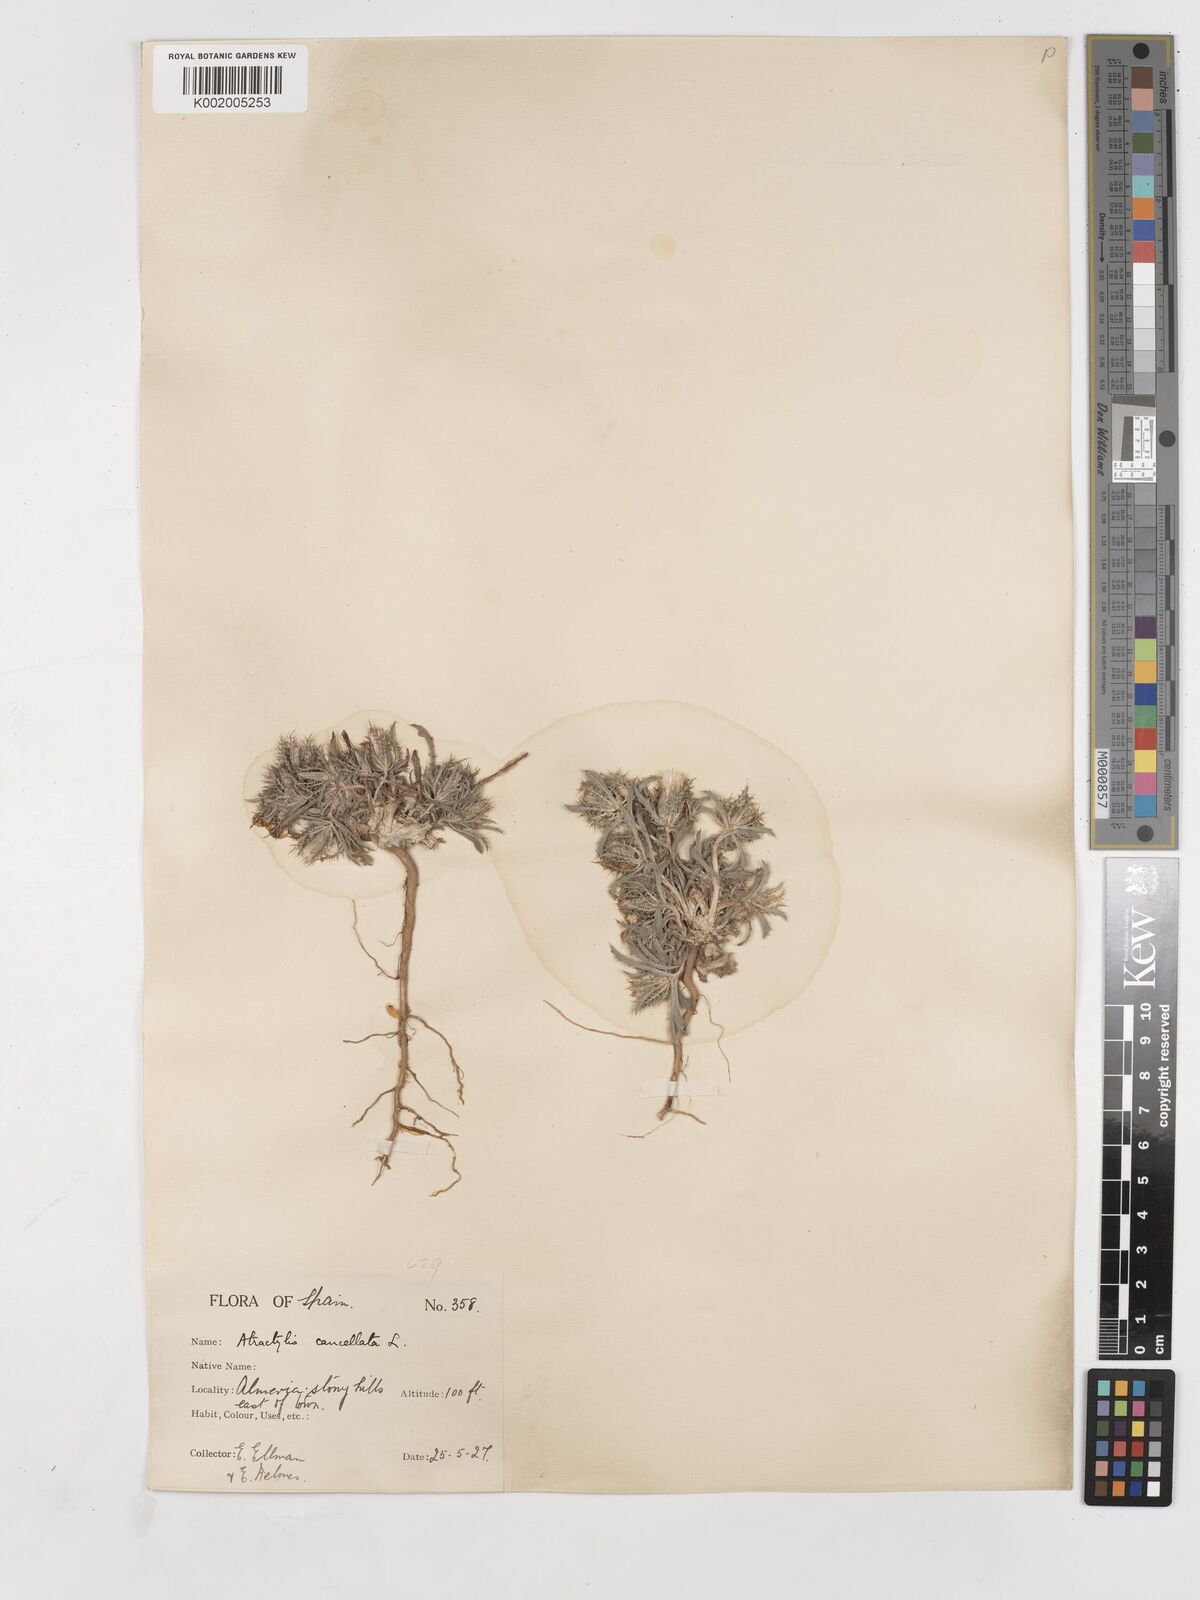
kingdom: Plantae
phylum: Tracheophyta
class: Magnoliopsida
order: Asterales
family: Asteraceae
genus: Atractylis
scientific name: Atractylis cancellata
